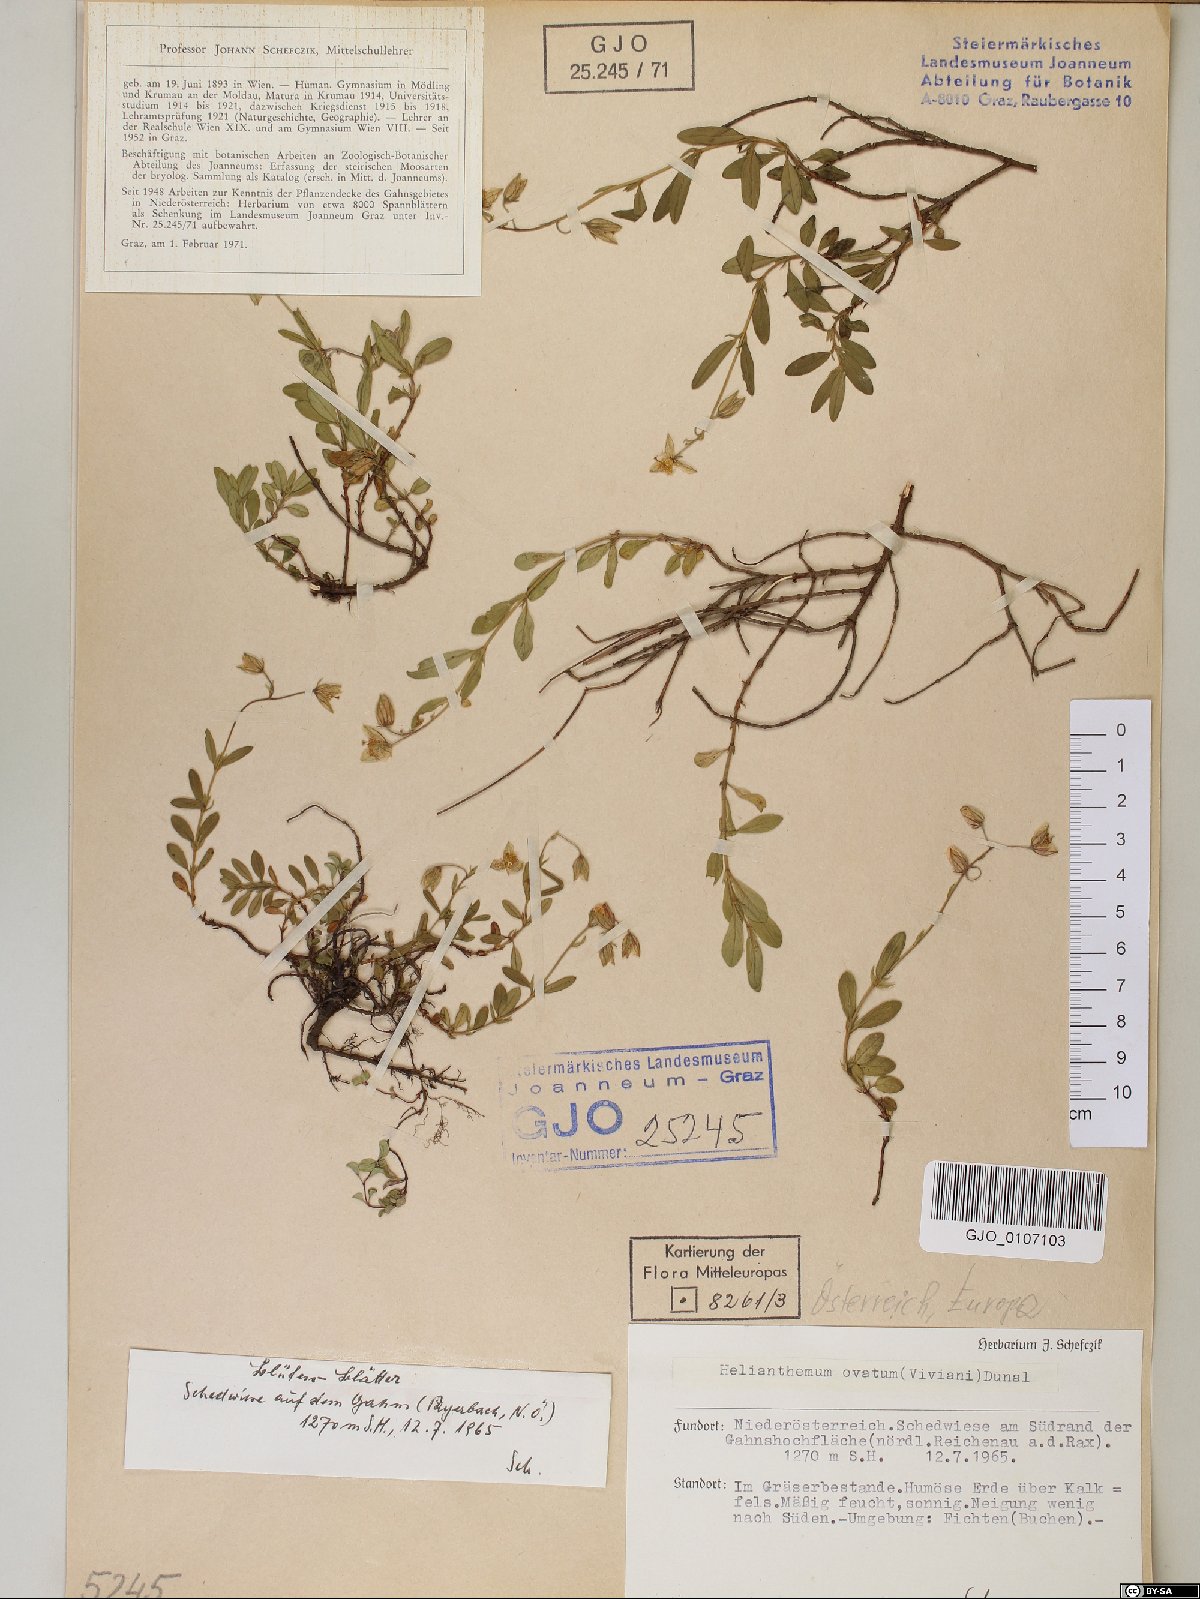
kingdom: Plantae
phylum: Tracheophyta
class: Magnoliopsida
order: Malvales
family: Cistaceae
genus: Helianthemum
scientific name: Helianthemum nummularium
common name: Common rock-rose
